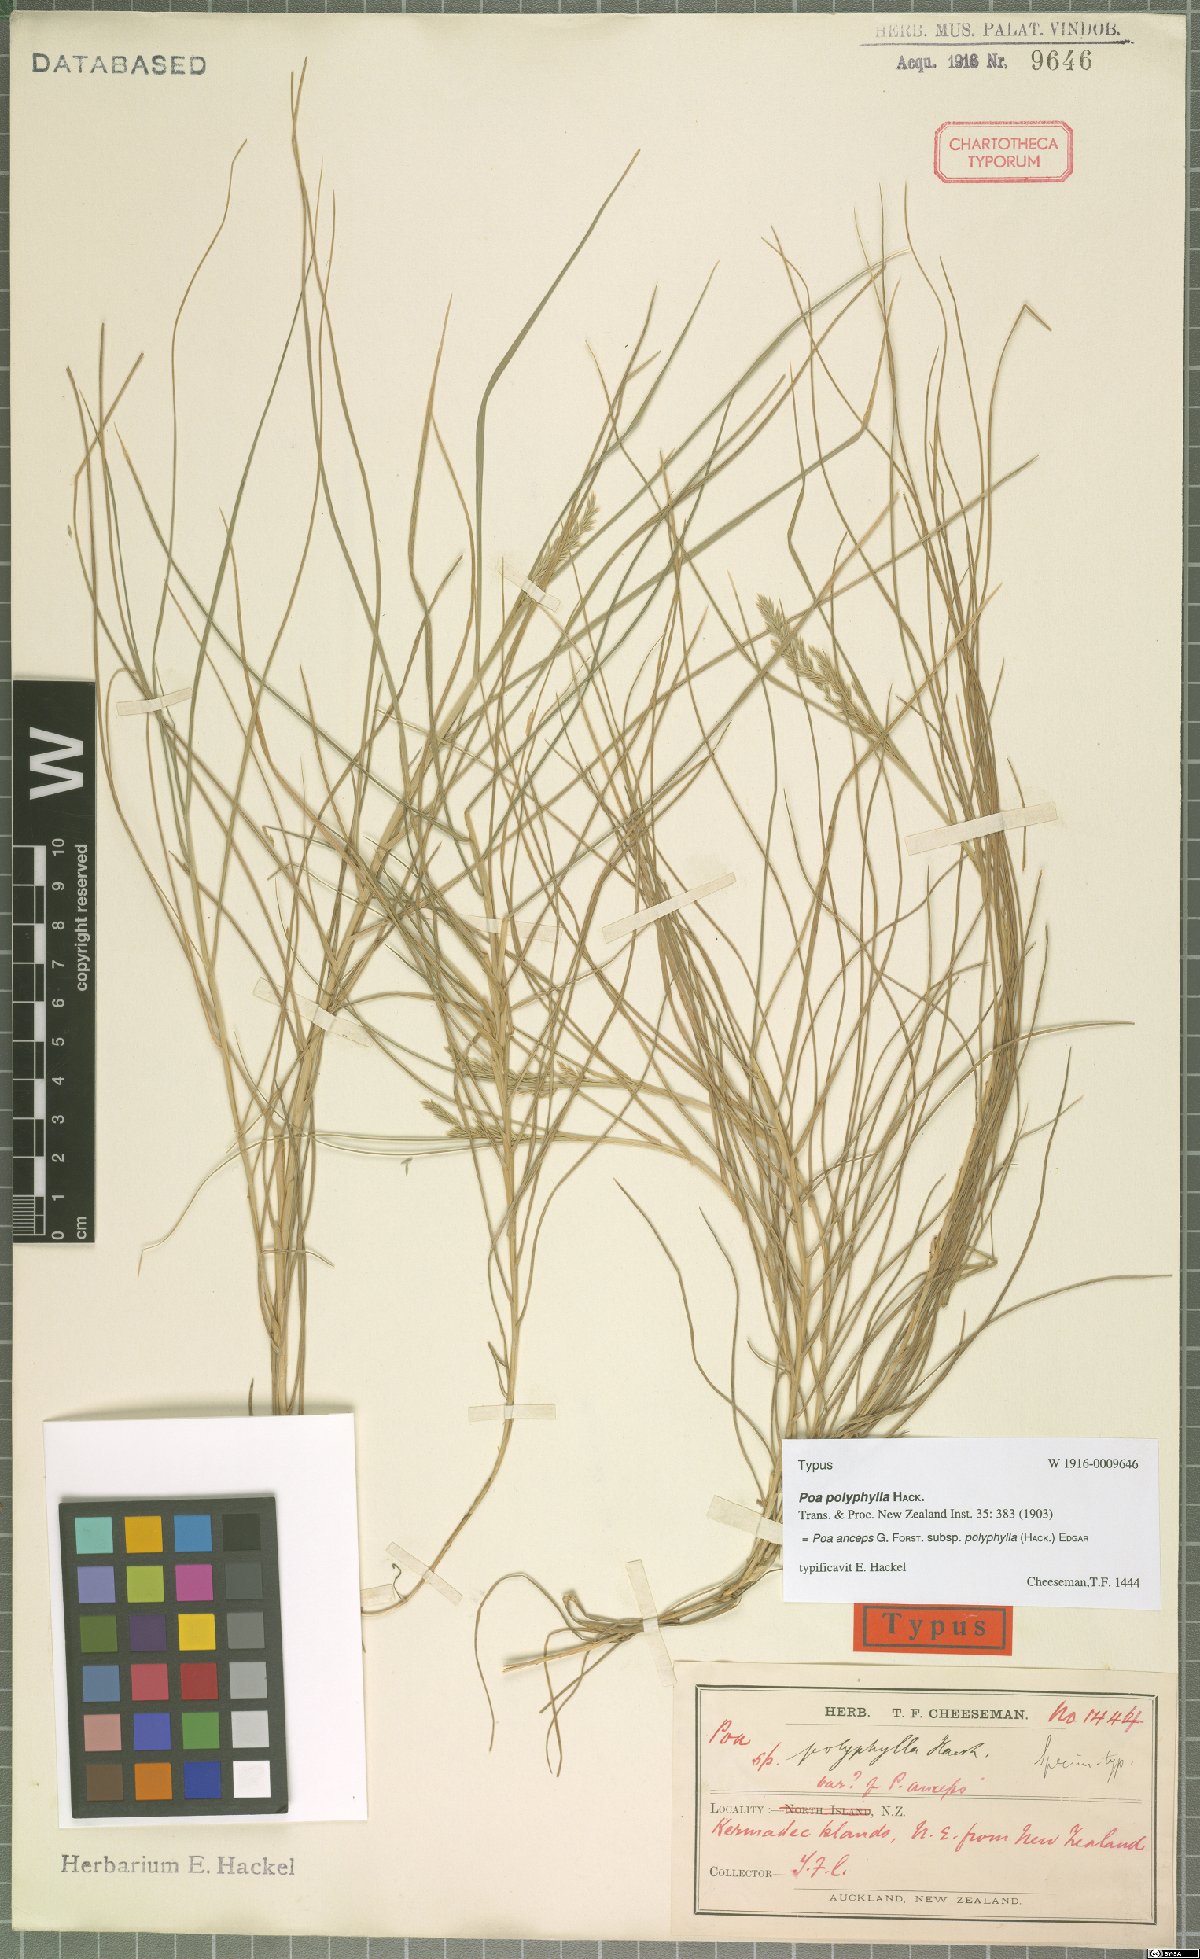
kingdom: Plantae
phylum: Tracheophyta
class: Liliopsida
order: Poales
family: Poaceae
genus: Poa
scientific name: Poa anceps
